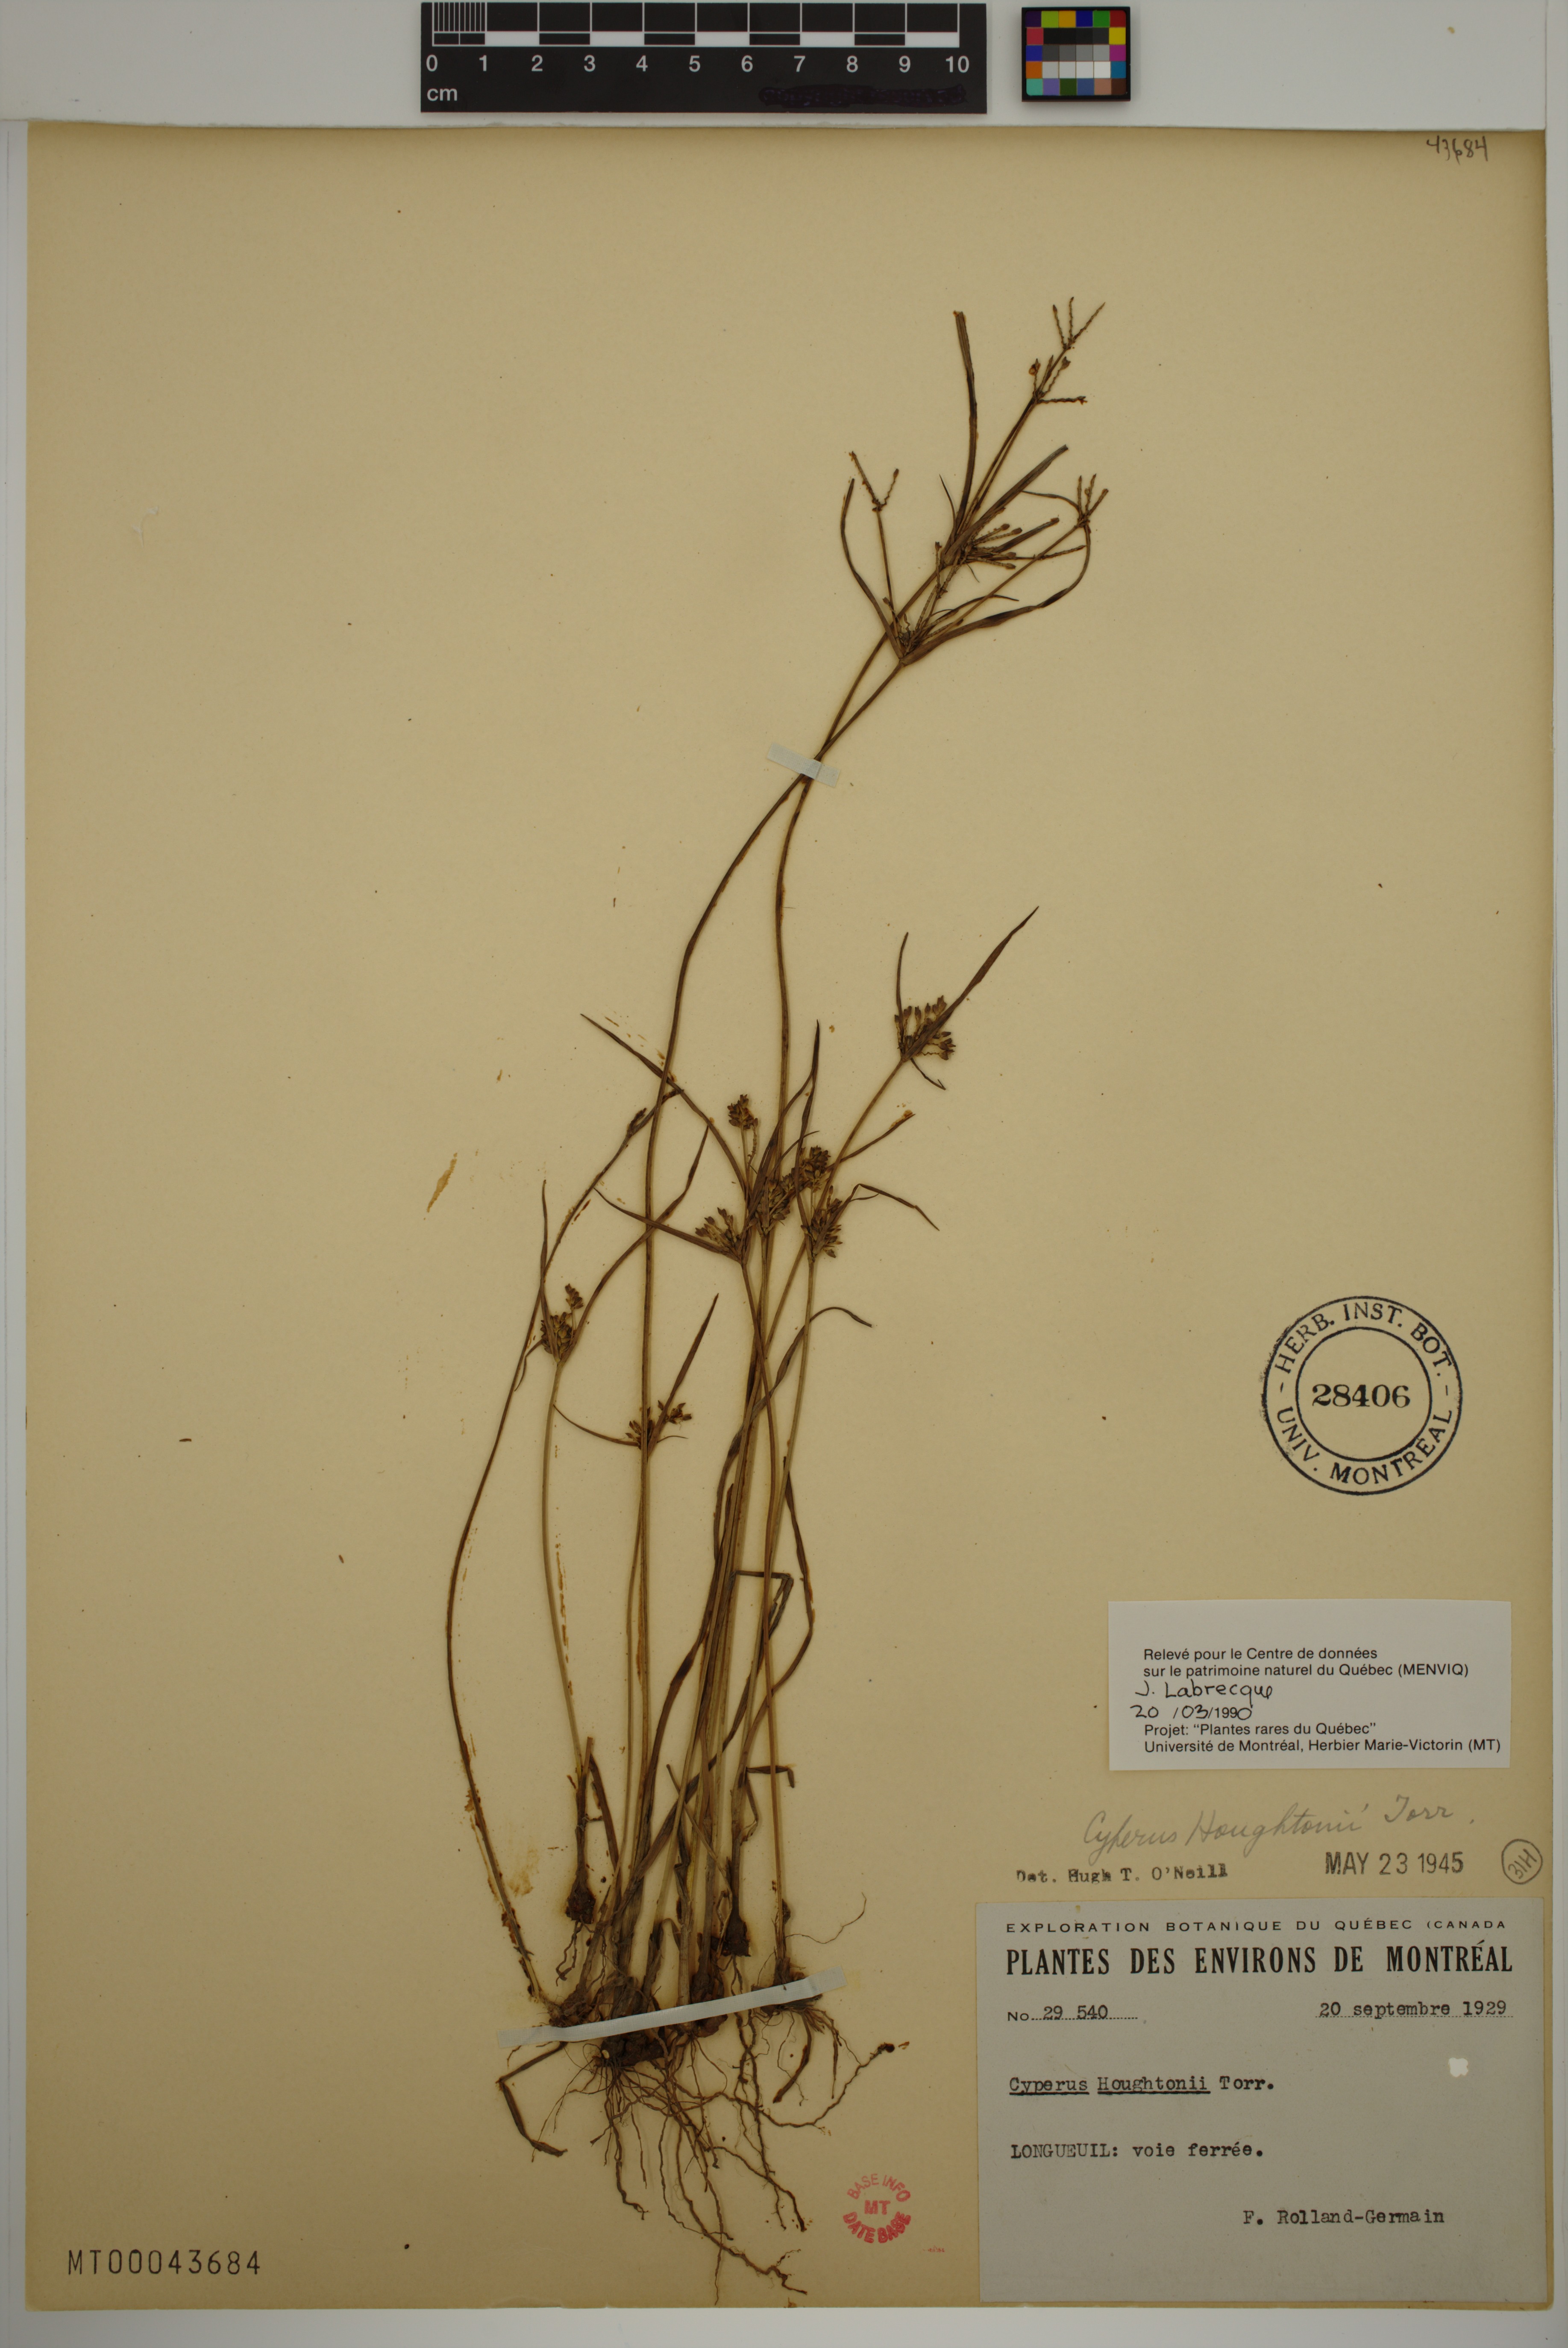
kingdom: Plantae
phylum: Tracheophyta
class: Liliopsida
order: Poales
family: Cyperaceae
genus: Cyperus
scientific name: Cyperus houghtonii
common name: Houghton's cyperus
